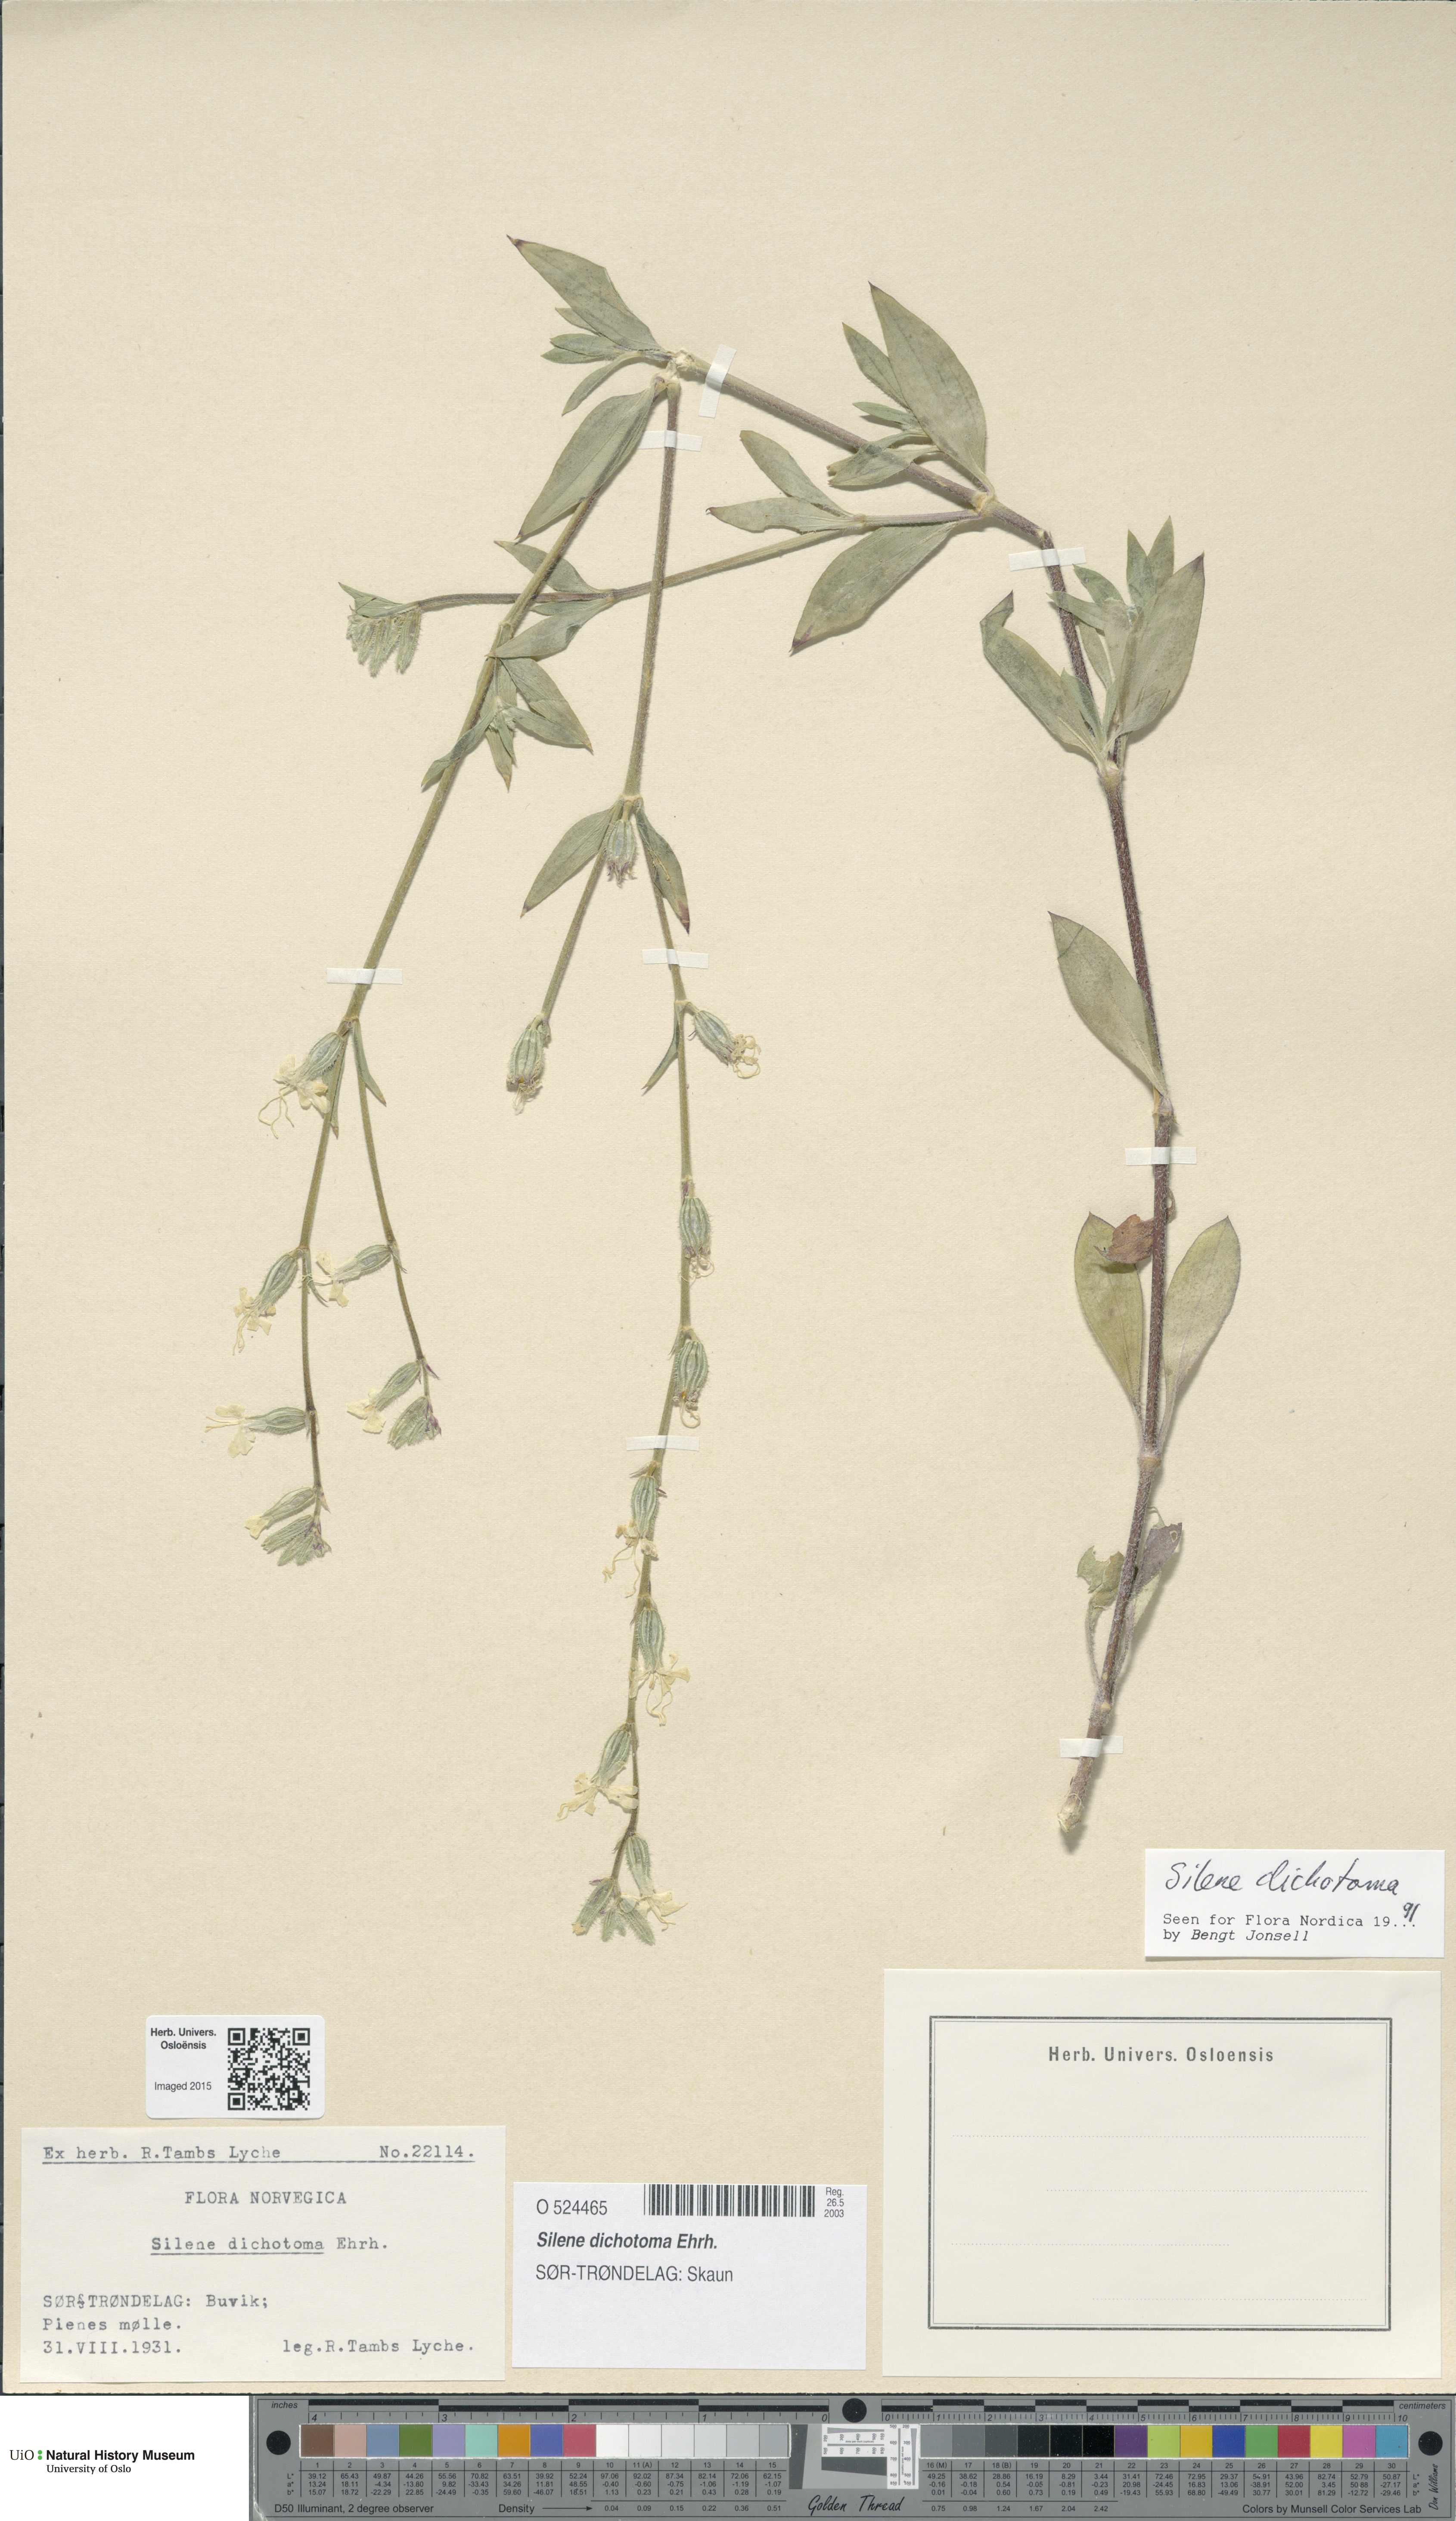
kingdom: Plantae
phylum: Tracheophyta
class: Magnoliopsida
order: Caryophyllales
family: Caryophyllaceae
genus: Silene
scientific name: Silene dichotoma
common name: Forked catchfly
